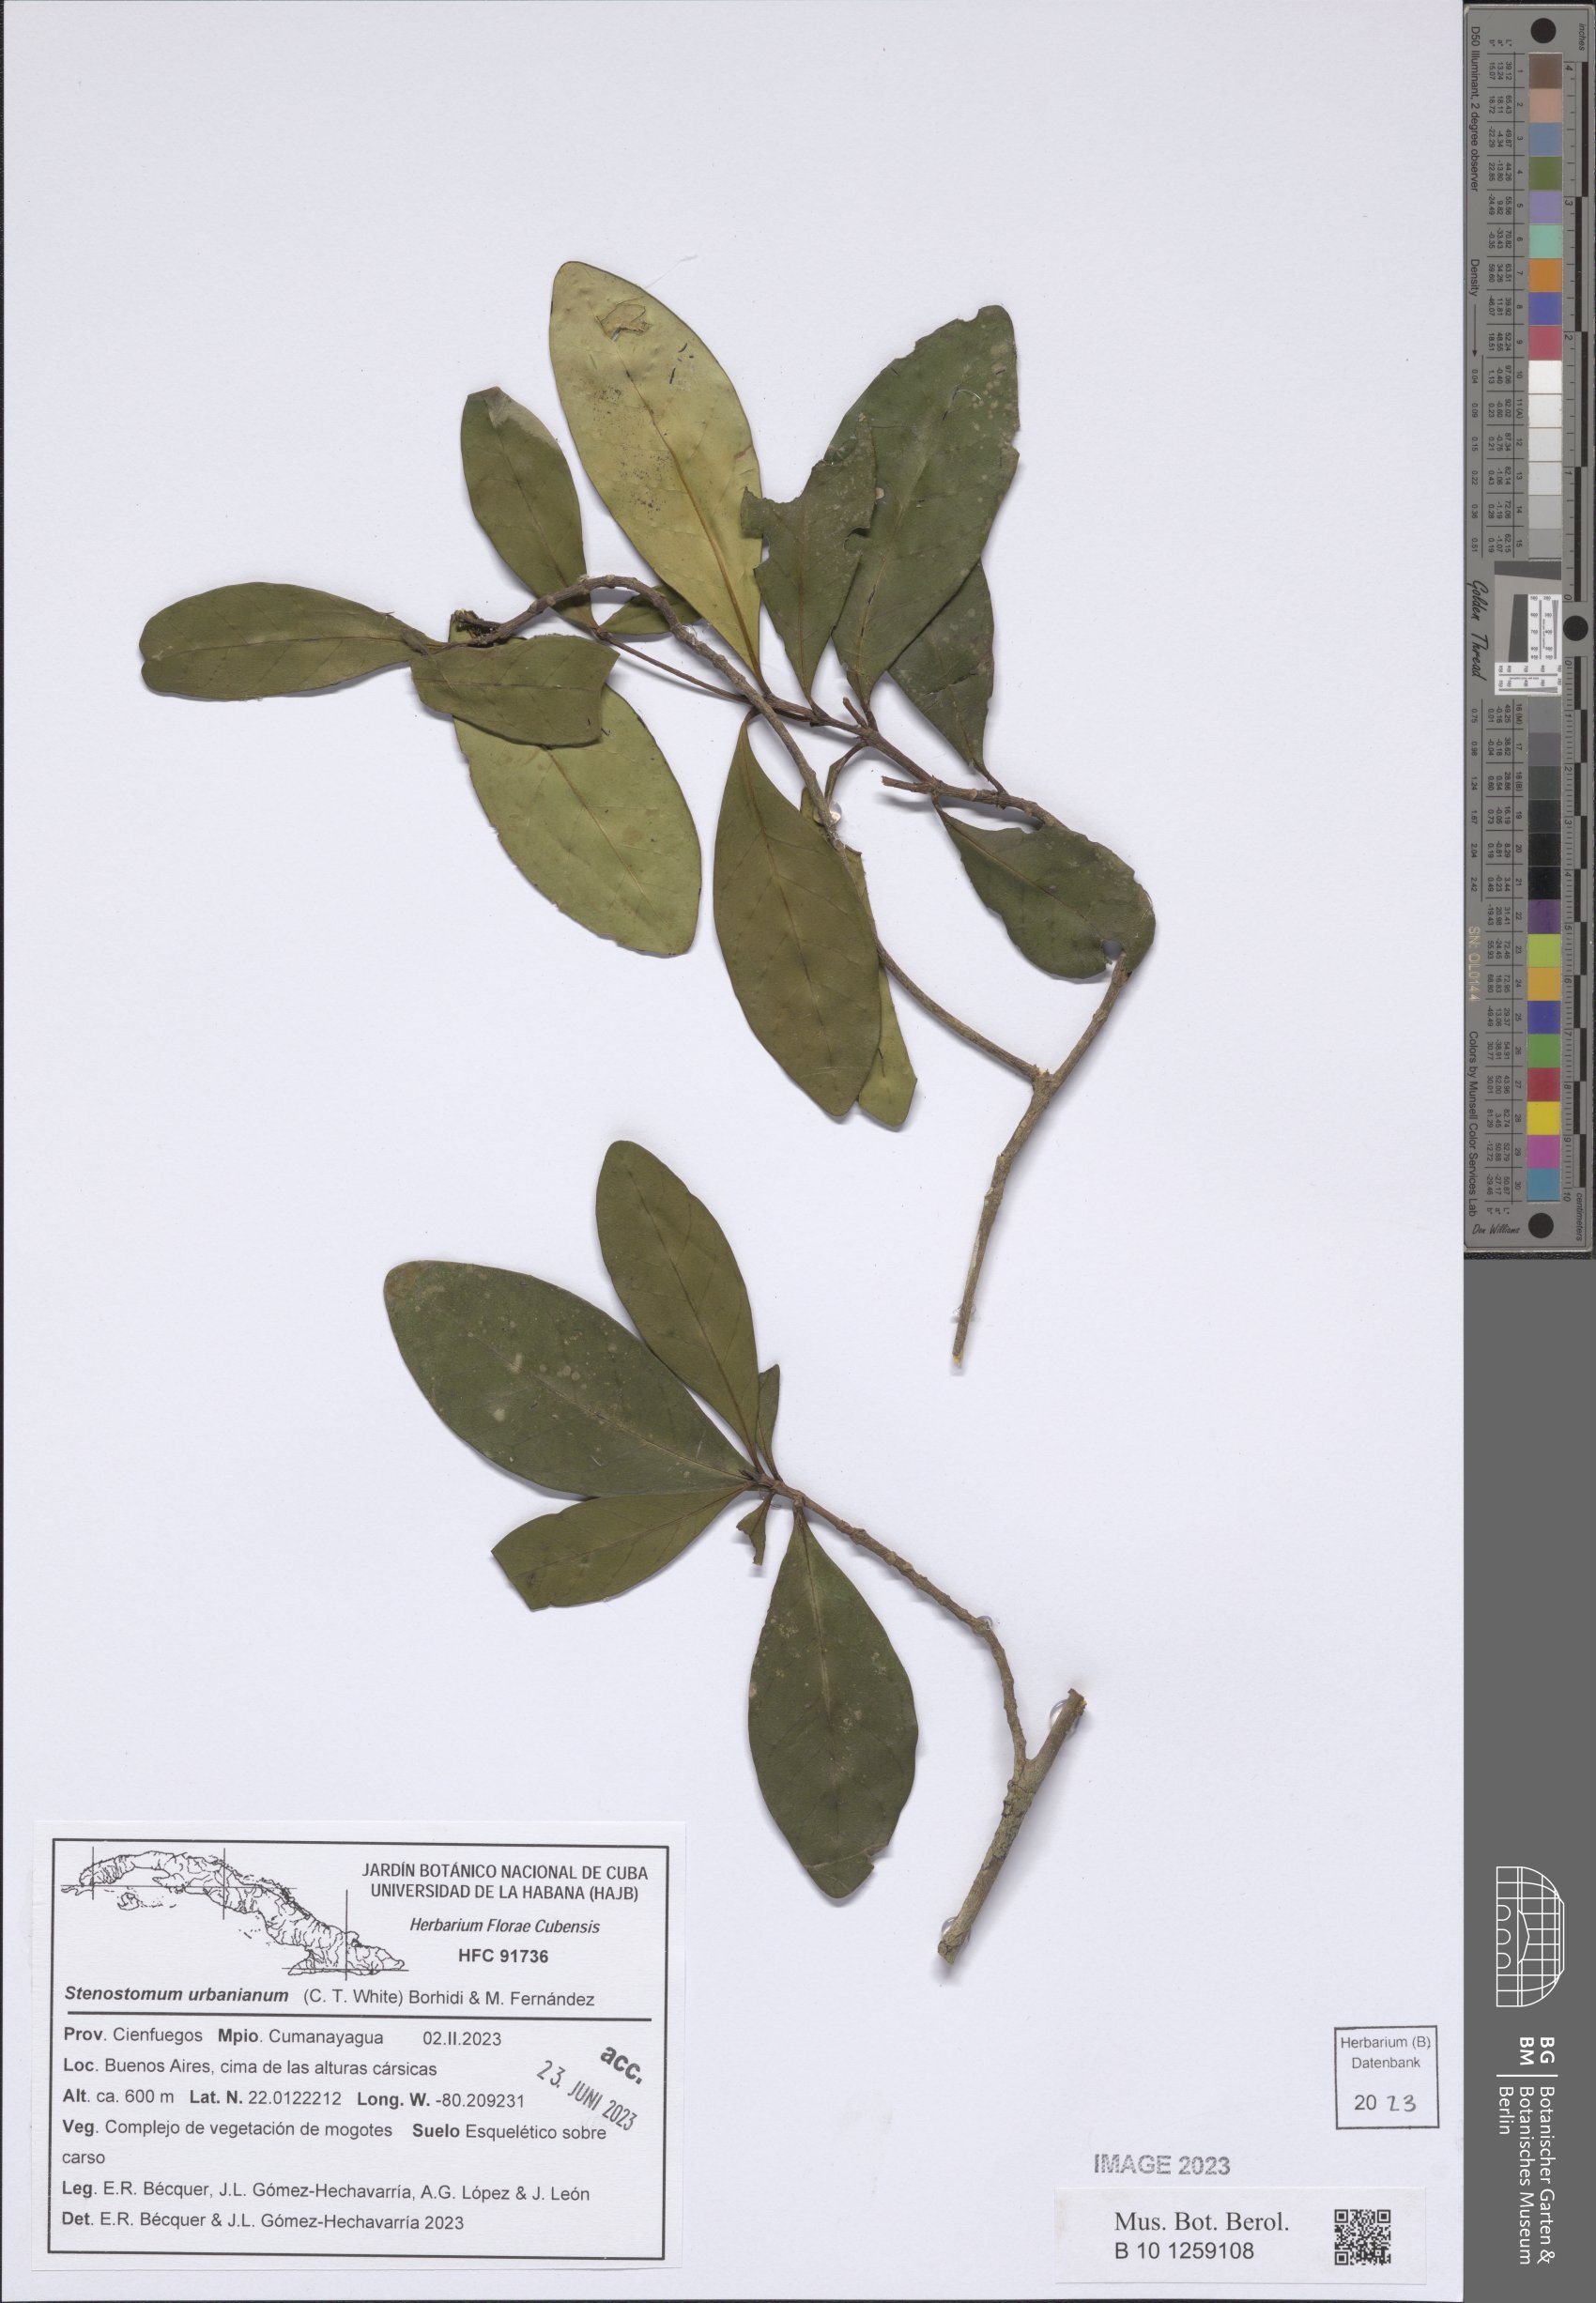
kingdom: Plantae
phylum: Tracheophyta
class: Magnoliopsida
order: Gentianales
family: Rubiaceae
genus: Stenostomum
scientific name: Stenostomum urbanianum
